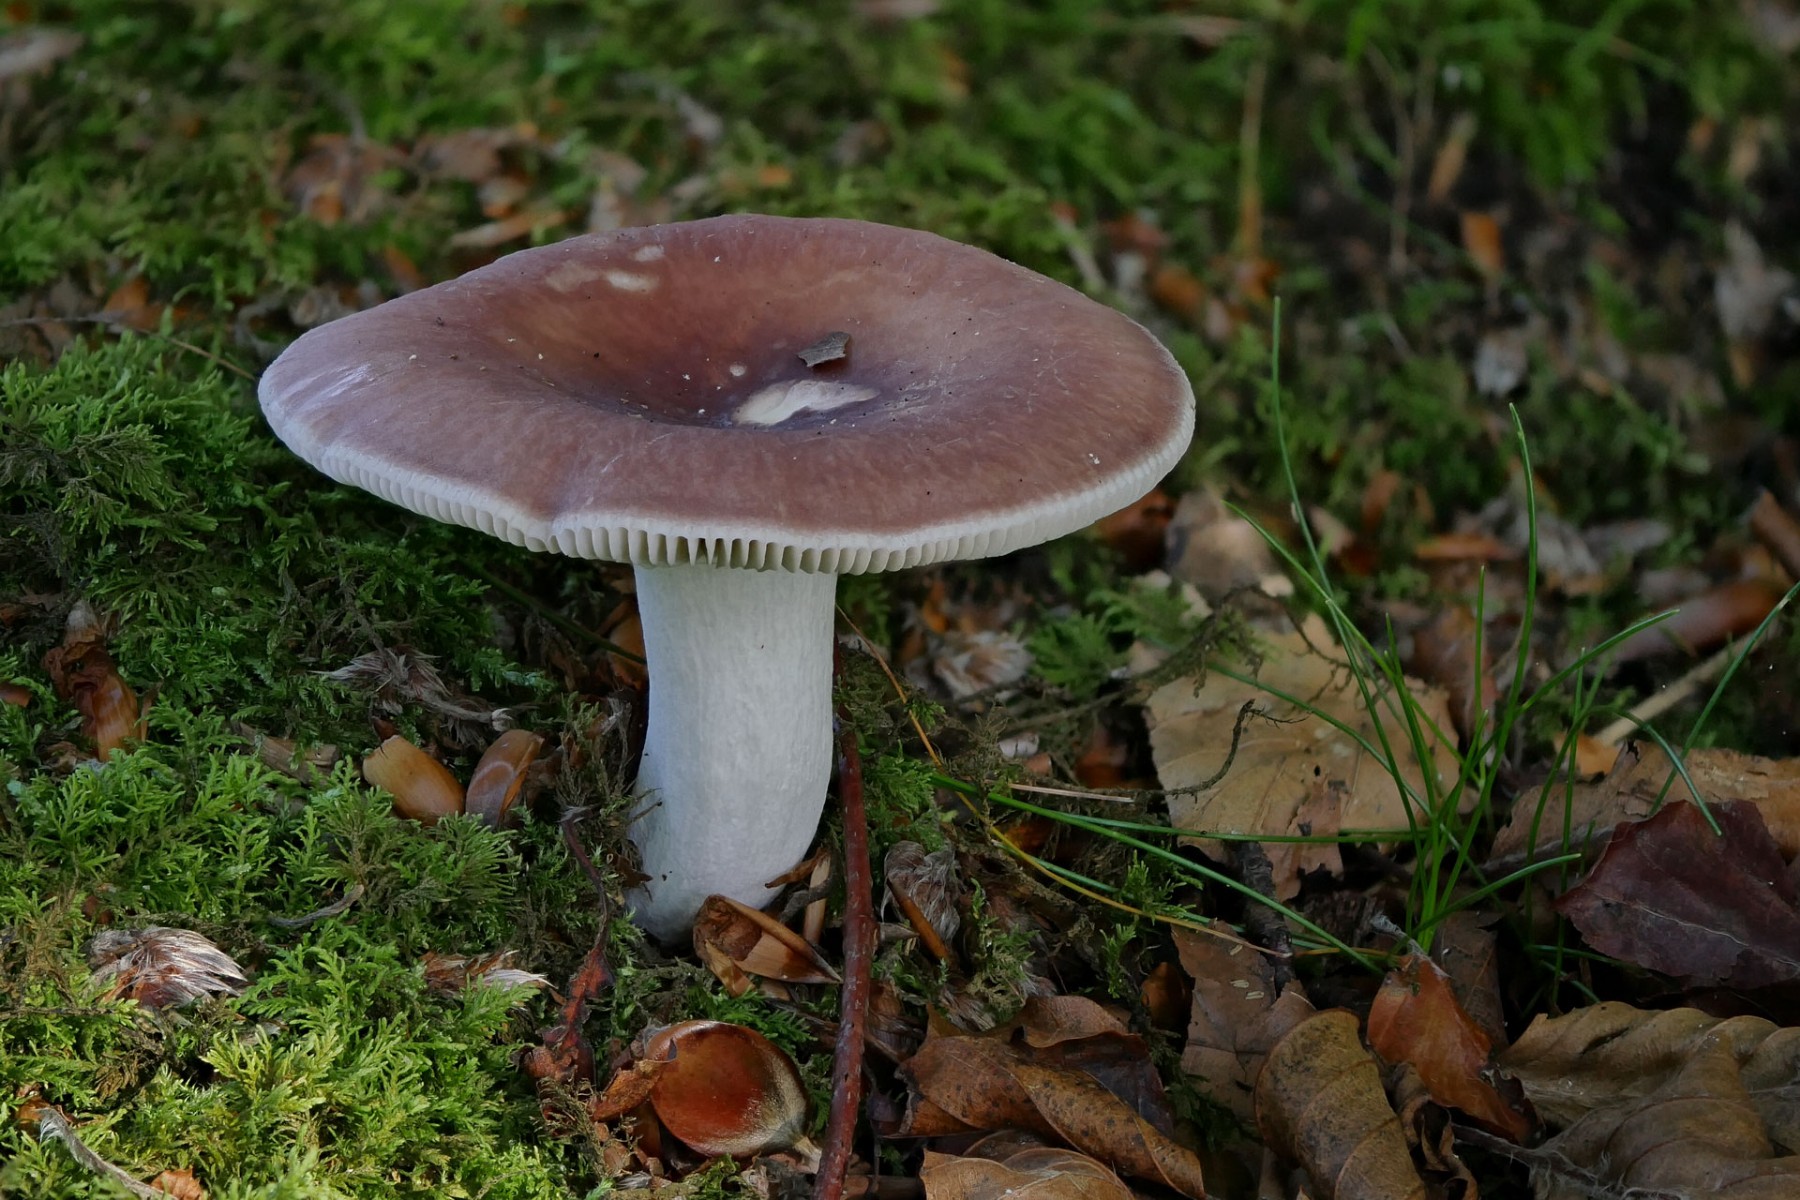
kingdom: Fungi
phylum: Basidiomycota
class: Agaricomycetes
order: Russulales
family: Russulaceae
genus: Russula
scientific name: Russula vesca
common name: spiselig skørhat
